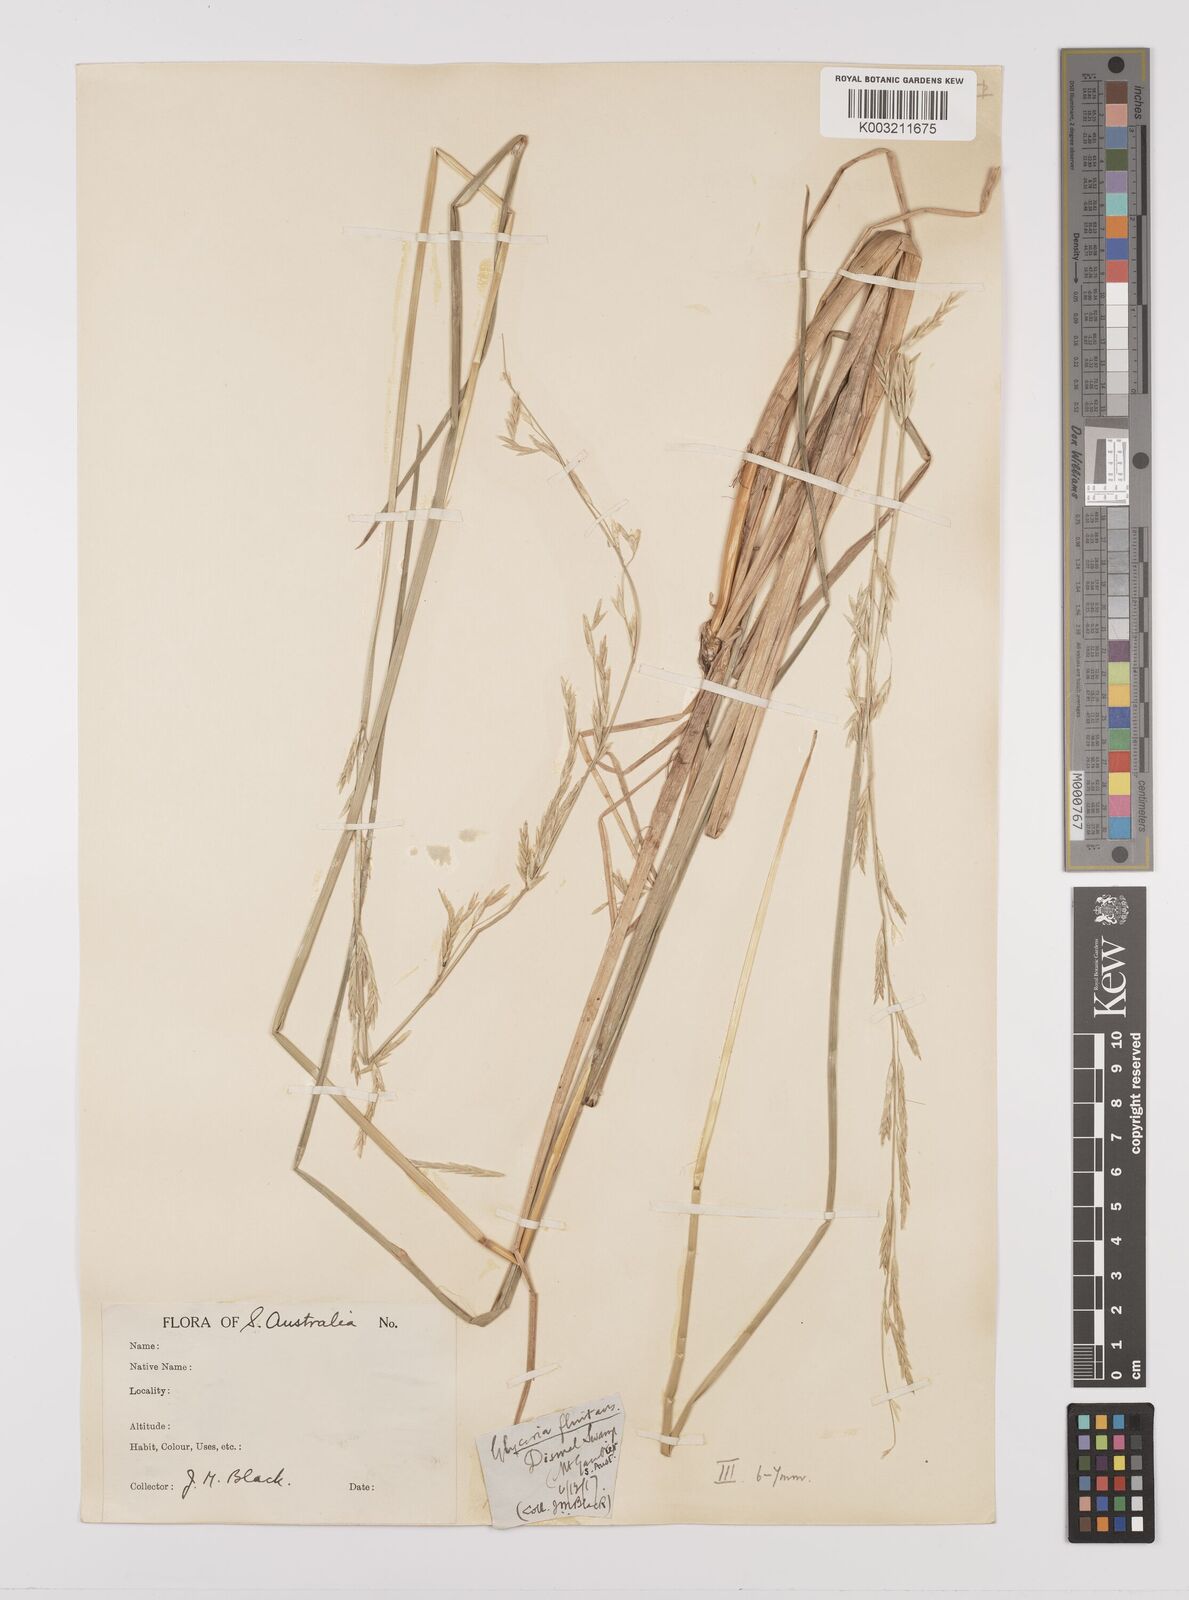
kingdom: Plantae
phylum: Tracheophyta
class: Liliopsida
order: Poales
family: Poaceae
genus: Glyceria
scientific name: Glyceria australis
